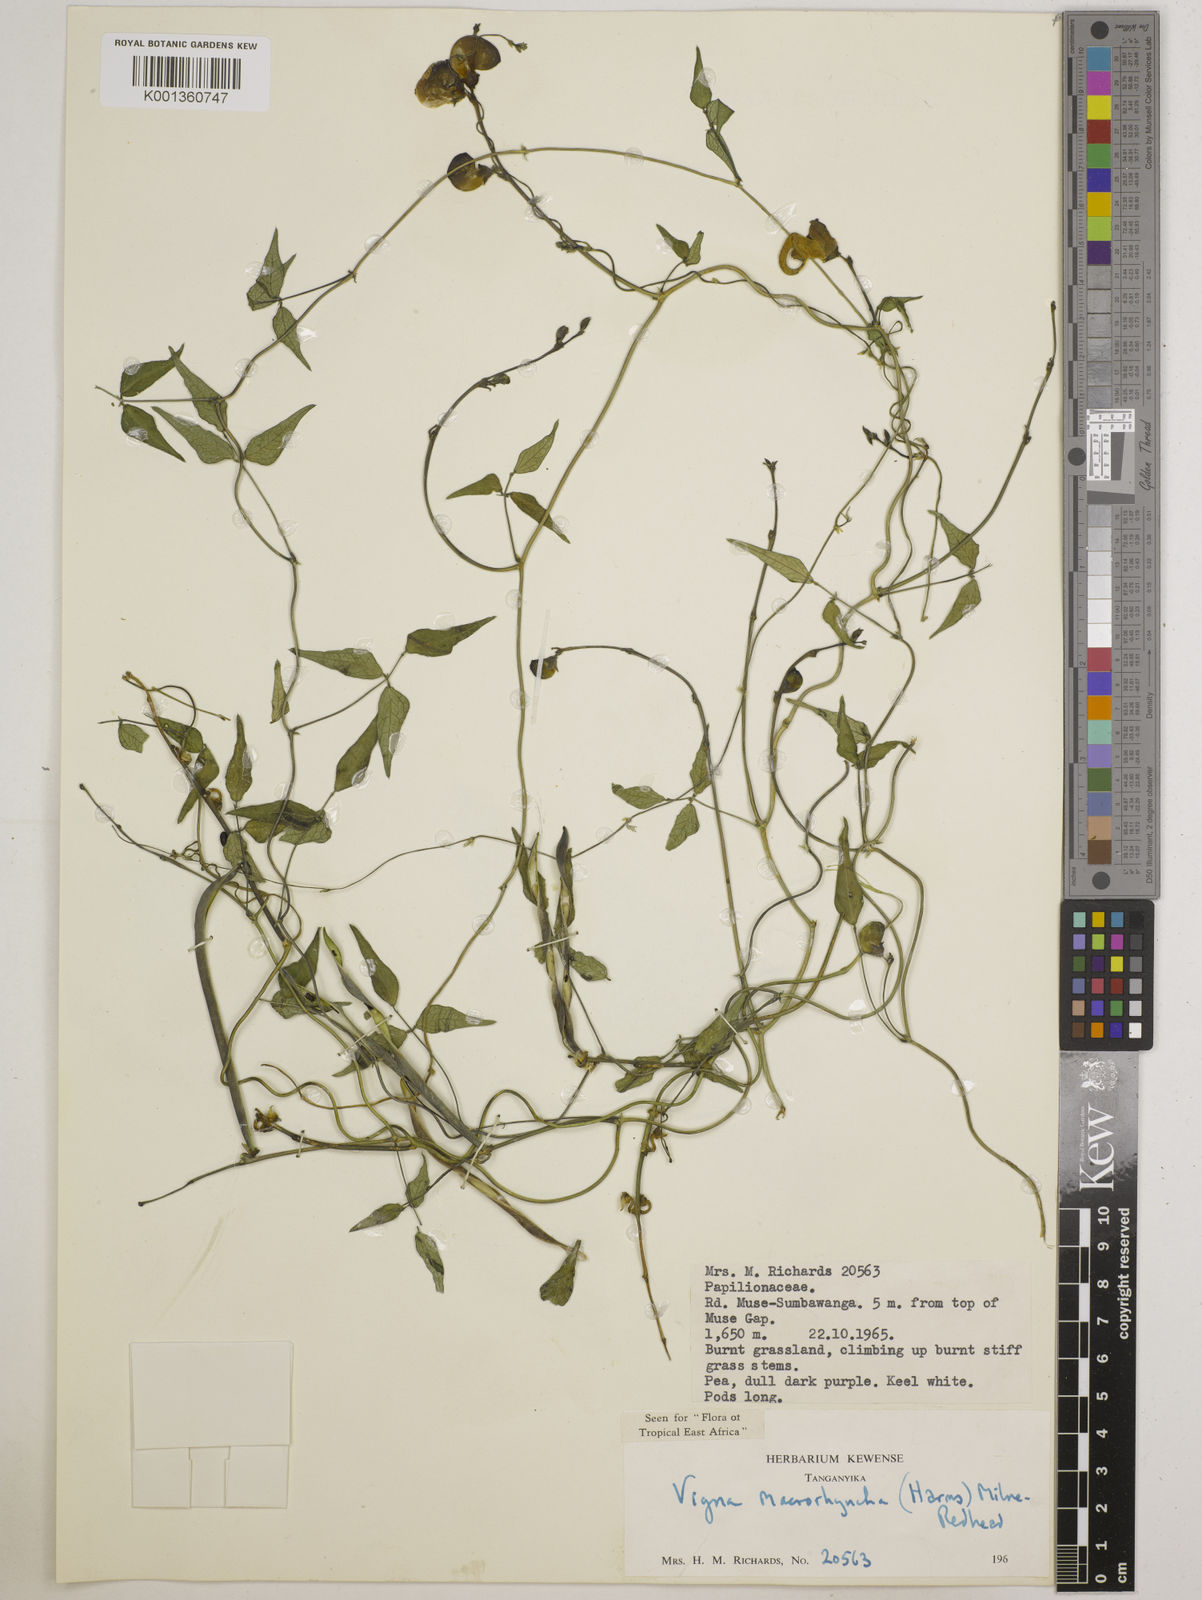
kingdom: Plantae
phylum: Tracheophyta
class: Magnoliopsida
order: Fabales
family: Fabaceae
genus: Wajira
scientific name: Wajira grahamiana
